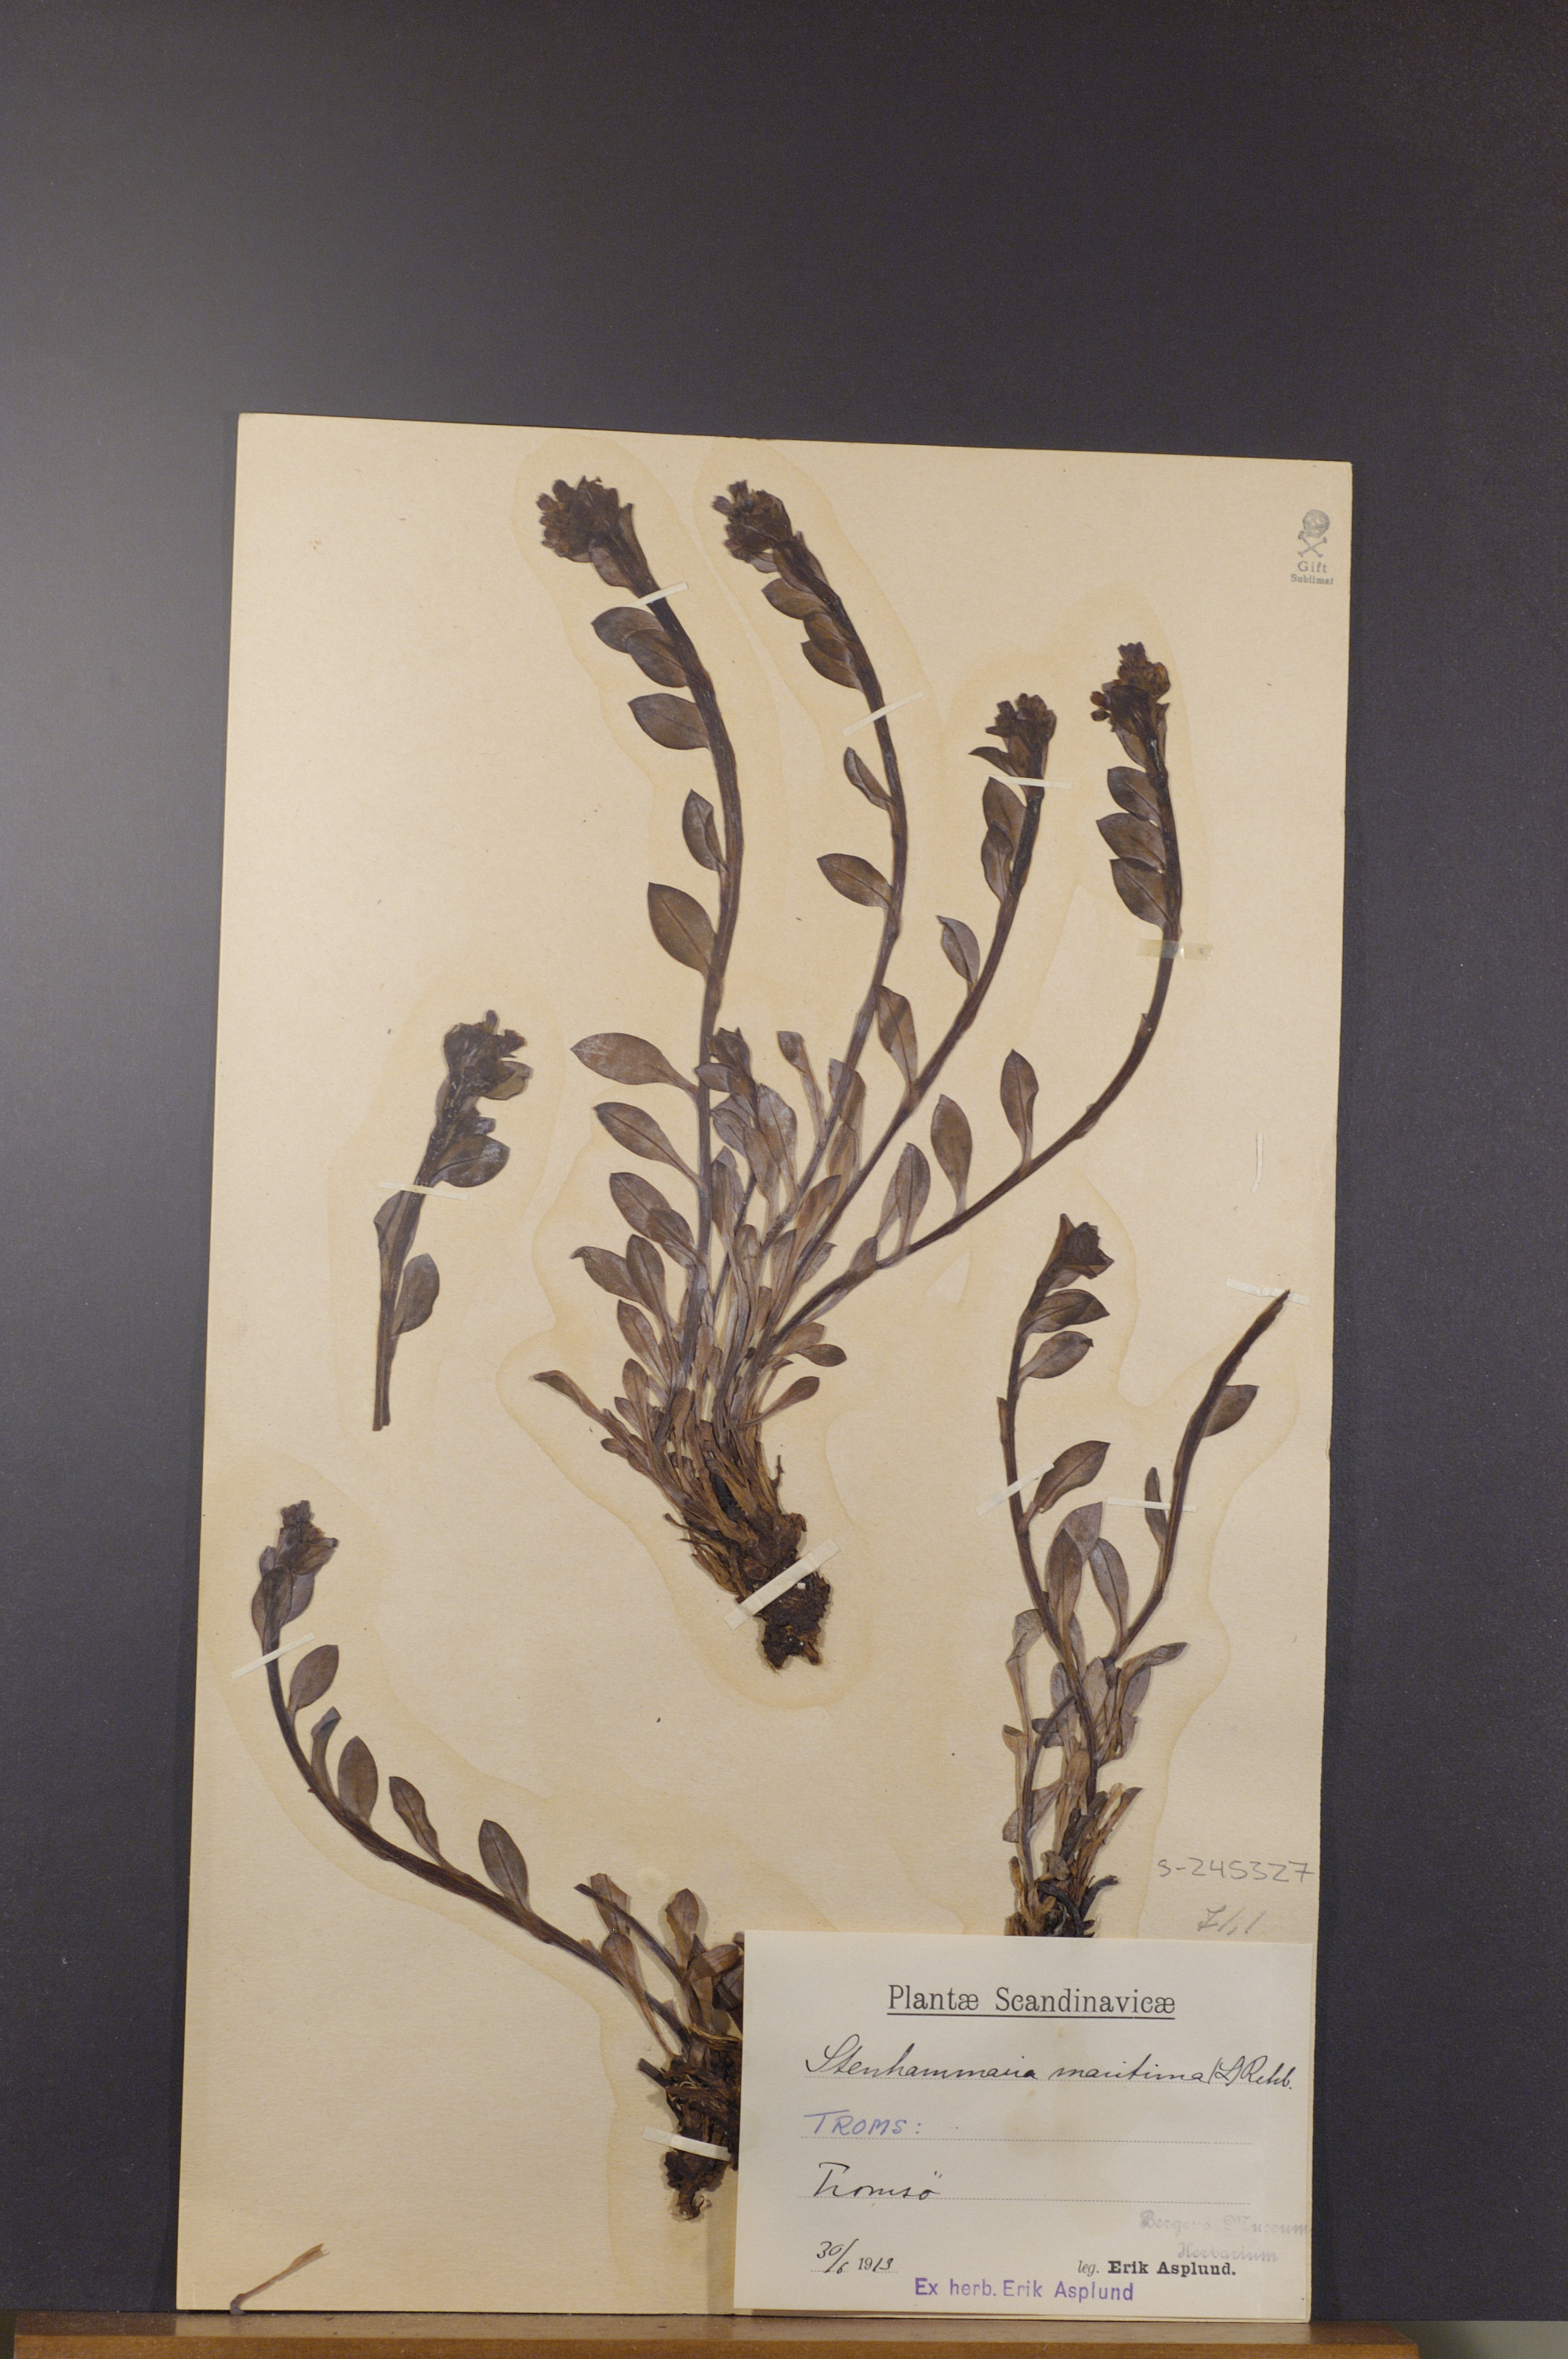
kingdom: Plantae
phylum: Tracheophyta
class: Magnoliopsida
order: Boraginales
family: Boraginaceae
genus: Mertensia
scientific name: Mertensia maritima
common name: Oysterplant
